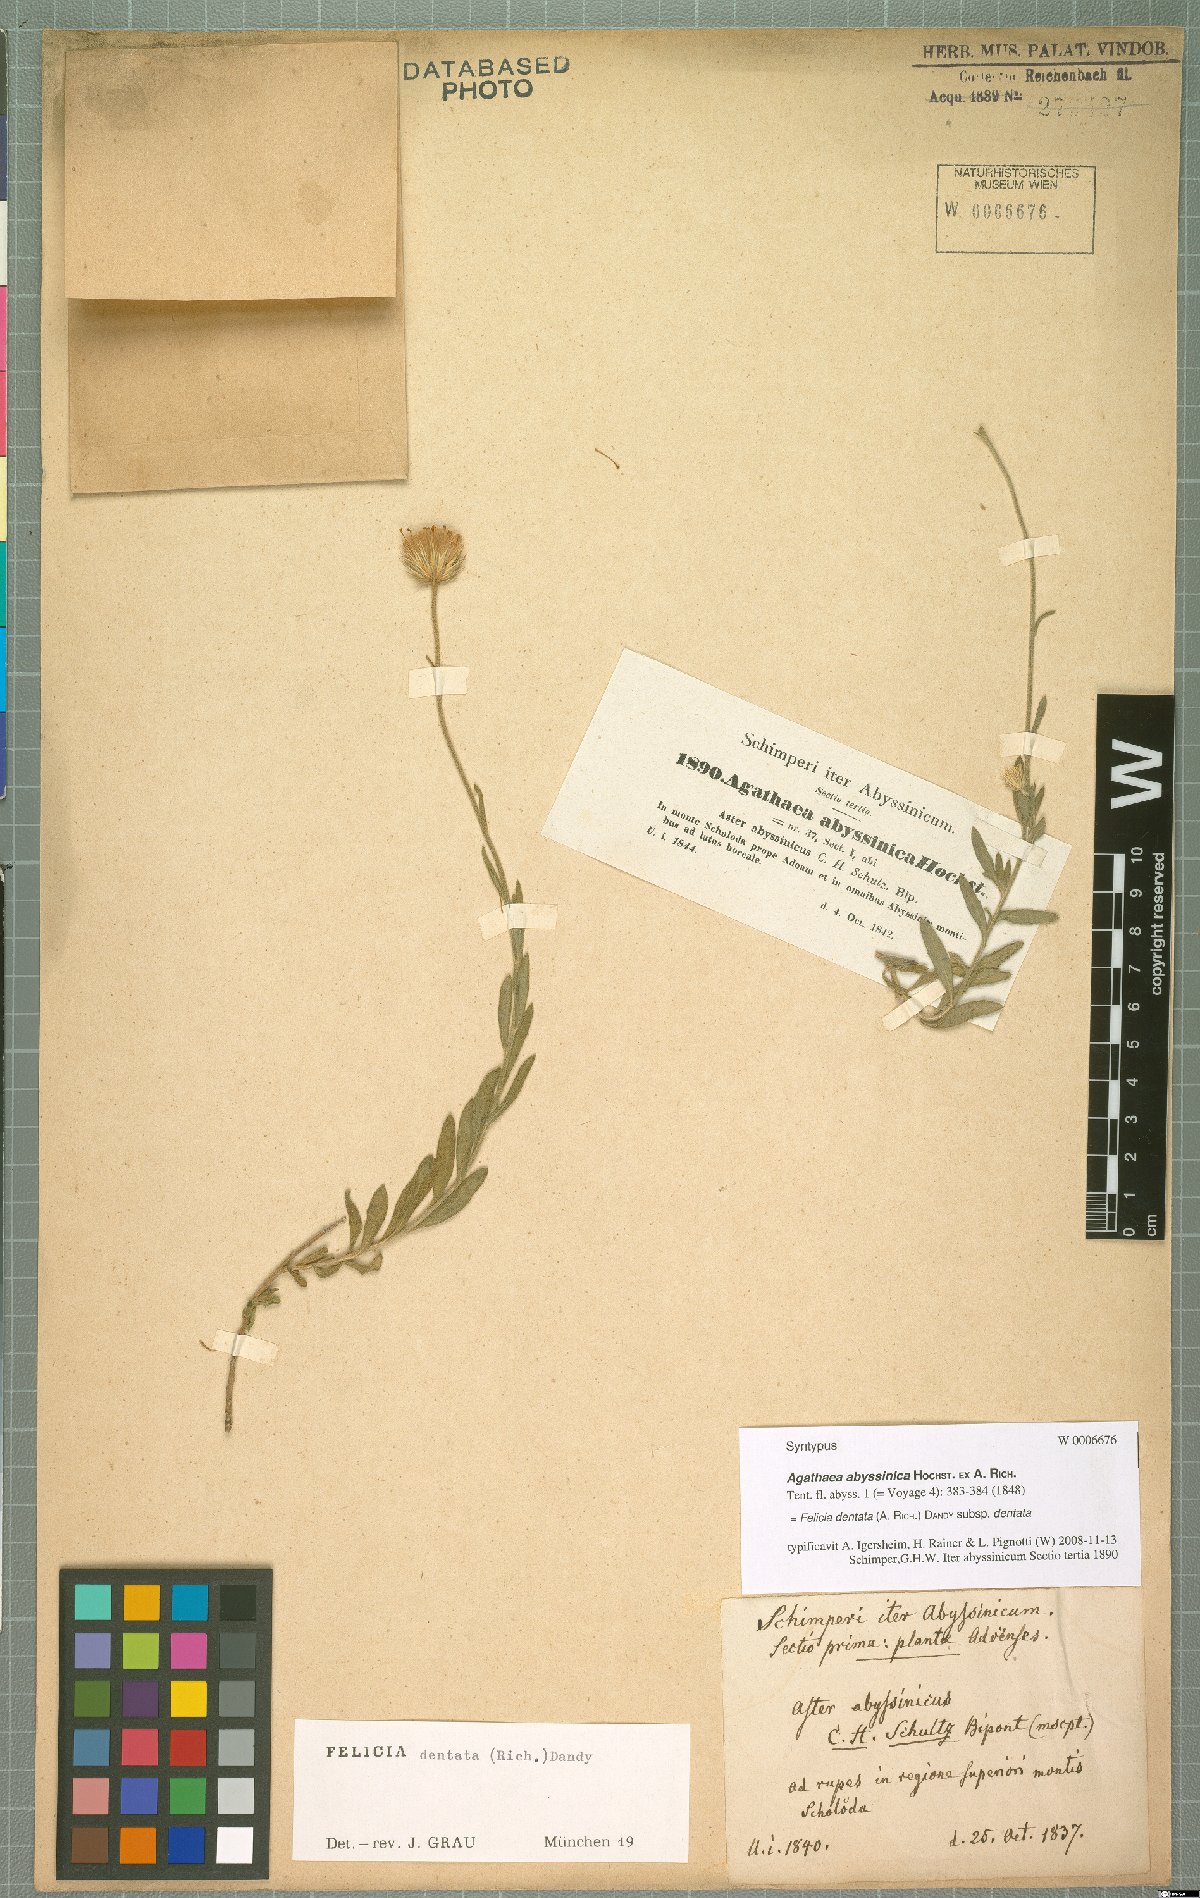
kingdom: Plantae
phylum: Tracheophyta
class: Magnoliopsida
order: Asterales
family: Asteraceae
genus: Felicia
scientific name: Felicia dentata
